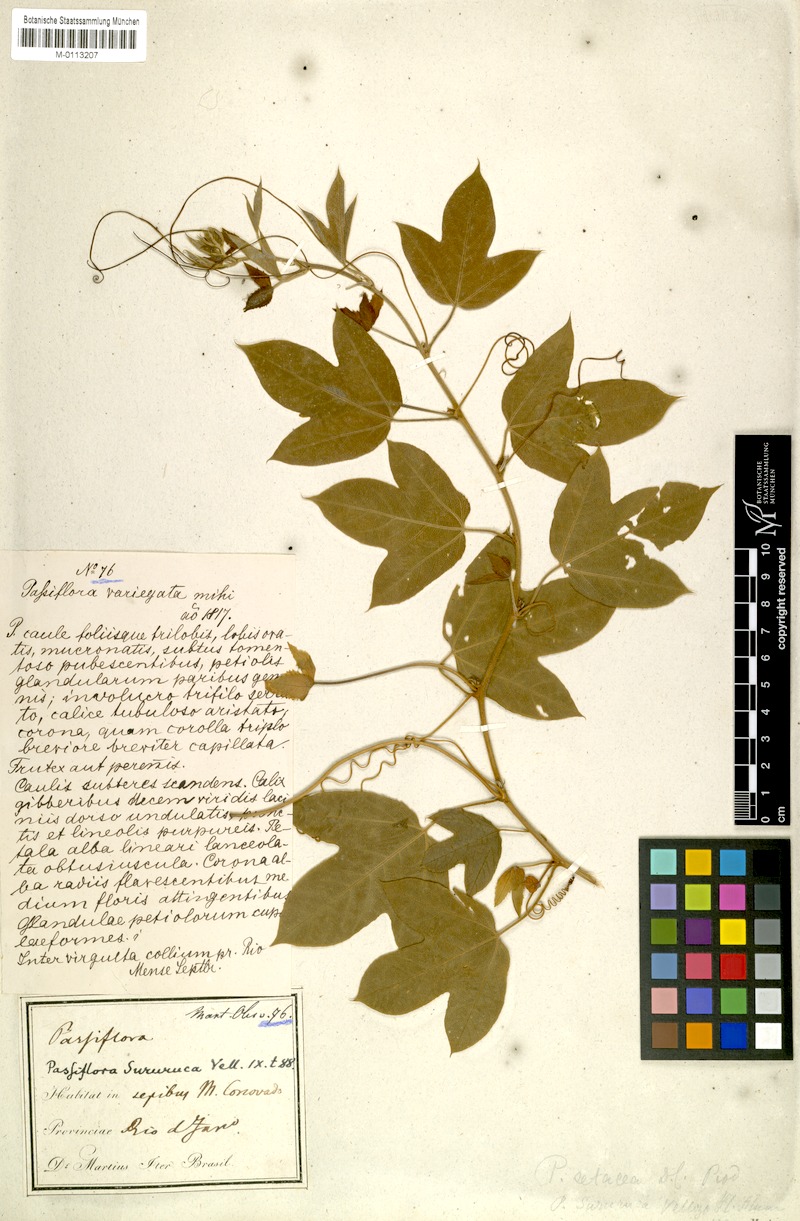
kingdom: Plantae
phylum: Tracheophyta
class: Magnoliopsida
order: Malpighiales
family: Passifloraceae
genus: Passiflora
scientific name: Passiflora setacea
